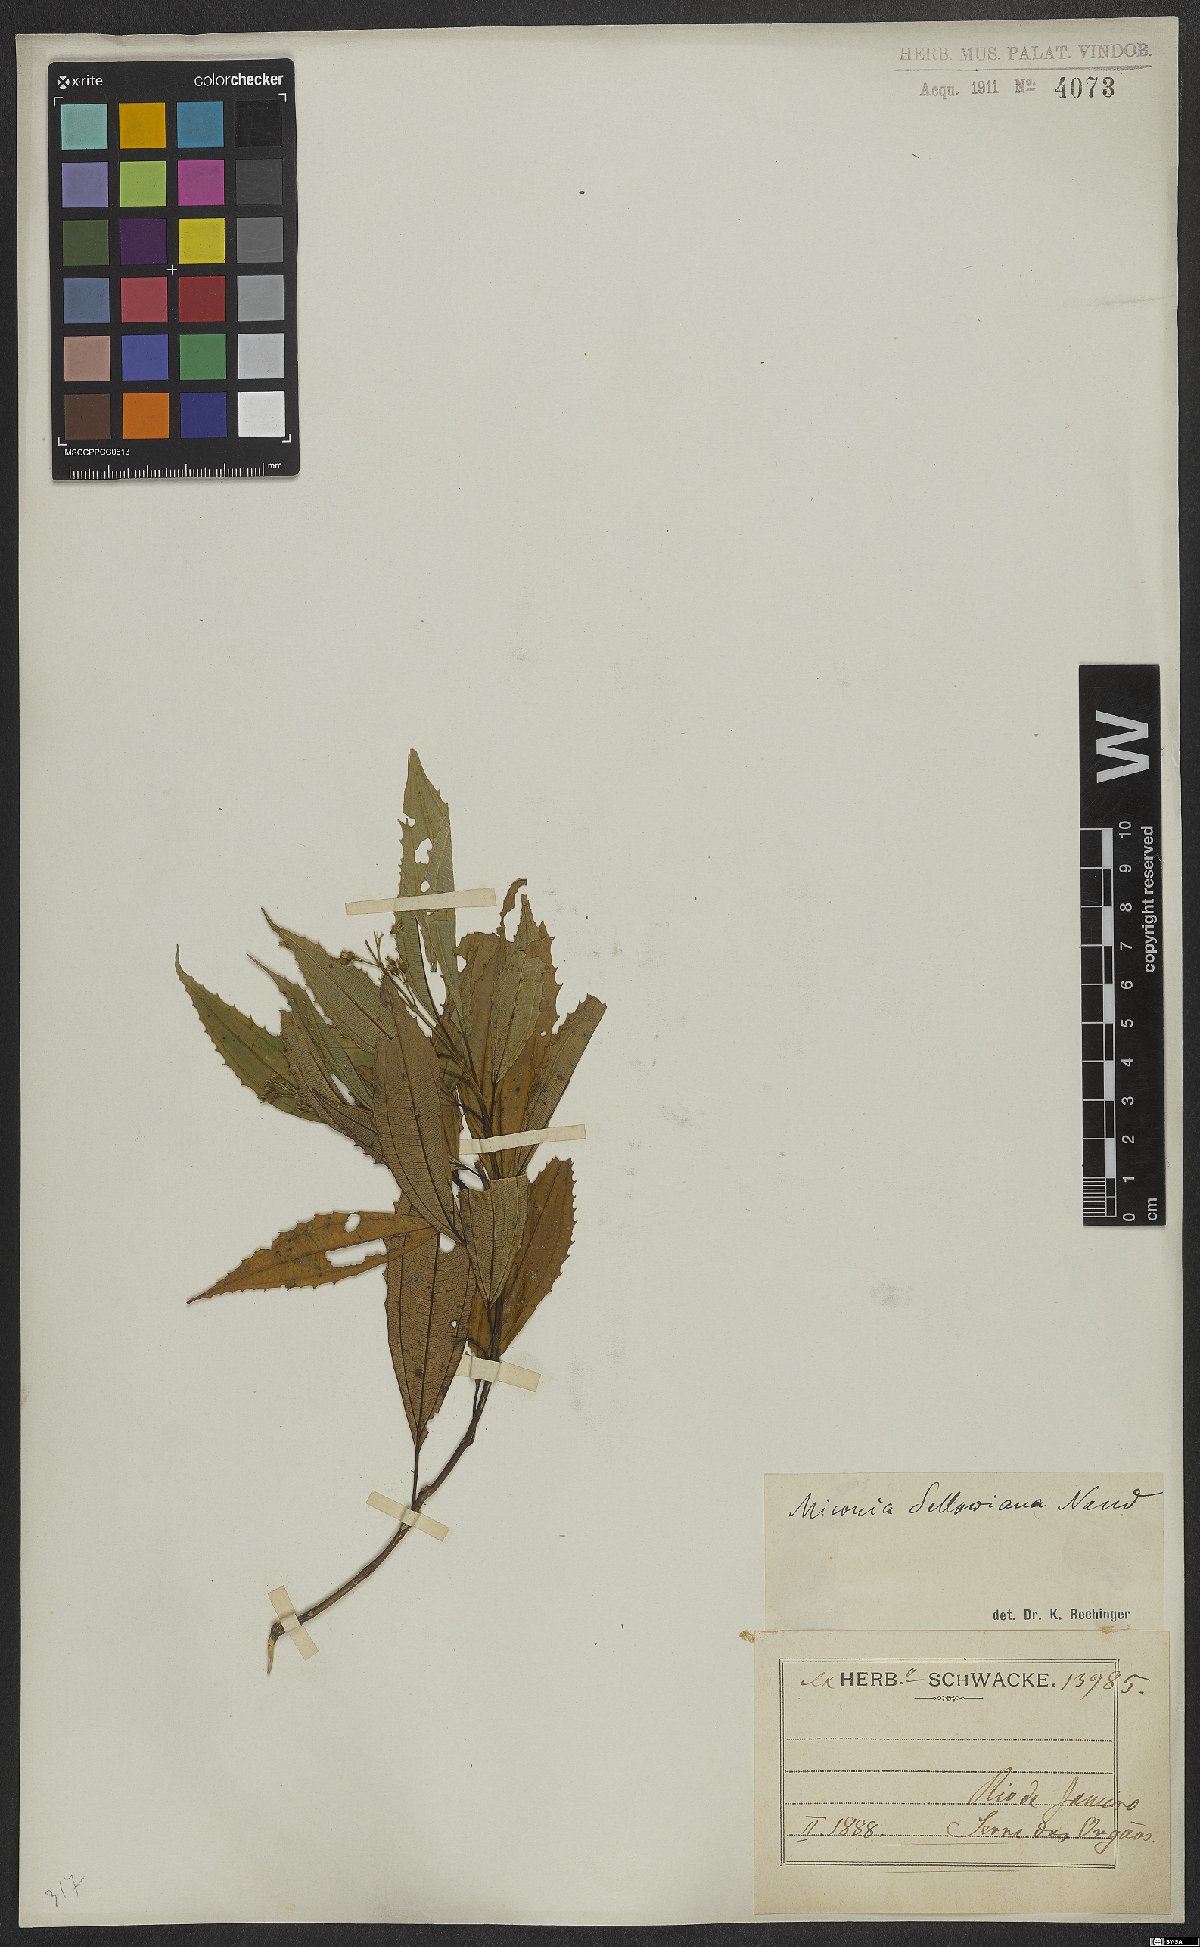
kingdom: Plantae
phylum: Tracheophyta
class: Magnoliopsida
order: Myrtales
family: Melastomataceae
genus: Miconia
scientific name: Miconia sellowiana
